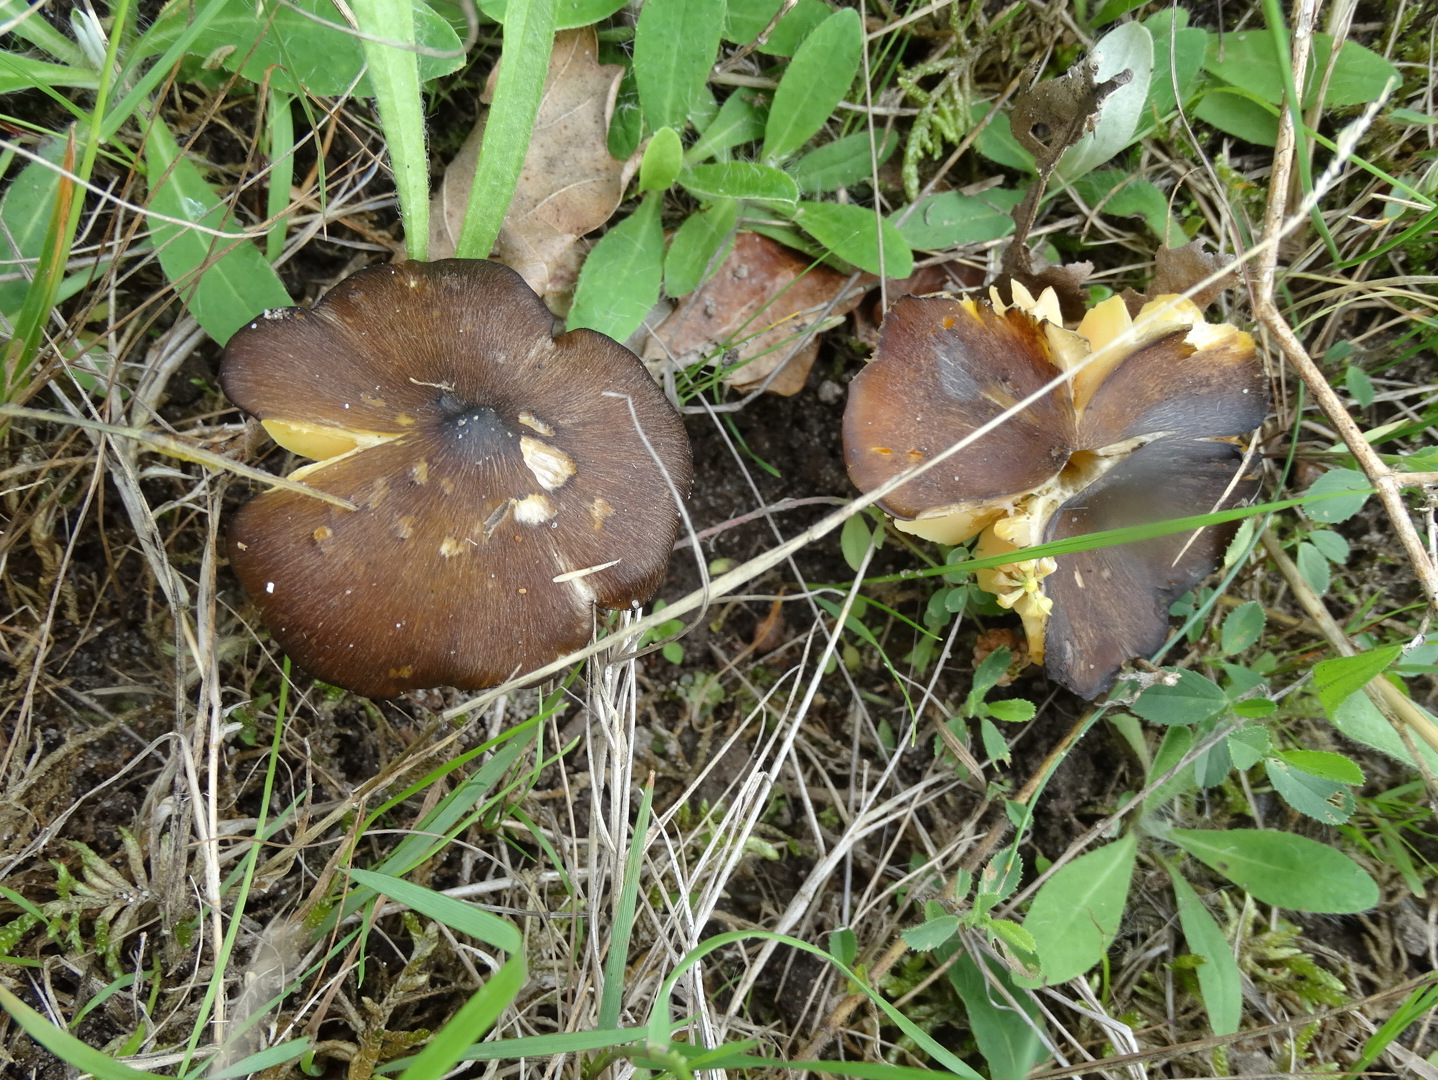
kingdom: Fungi
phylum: Basidiomycota
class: Agaricomycetes
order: Agaricales
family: Hygrophoraceae
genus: Hygrocybe
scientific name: Hygrocybe spadicea
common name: daddelbrun vokshat
